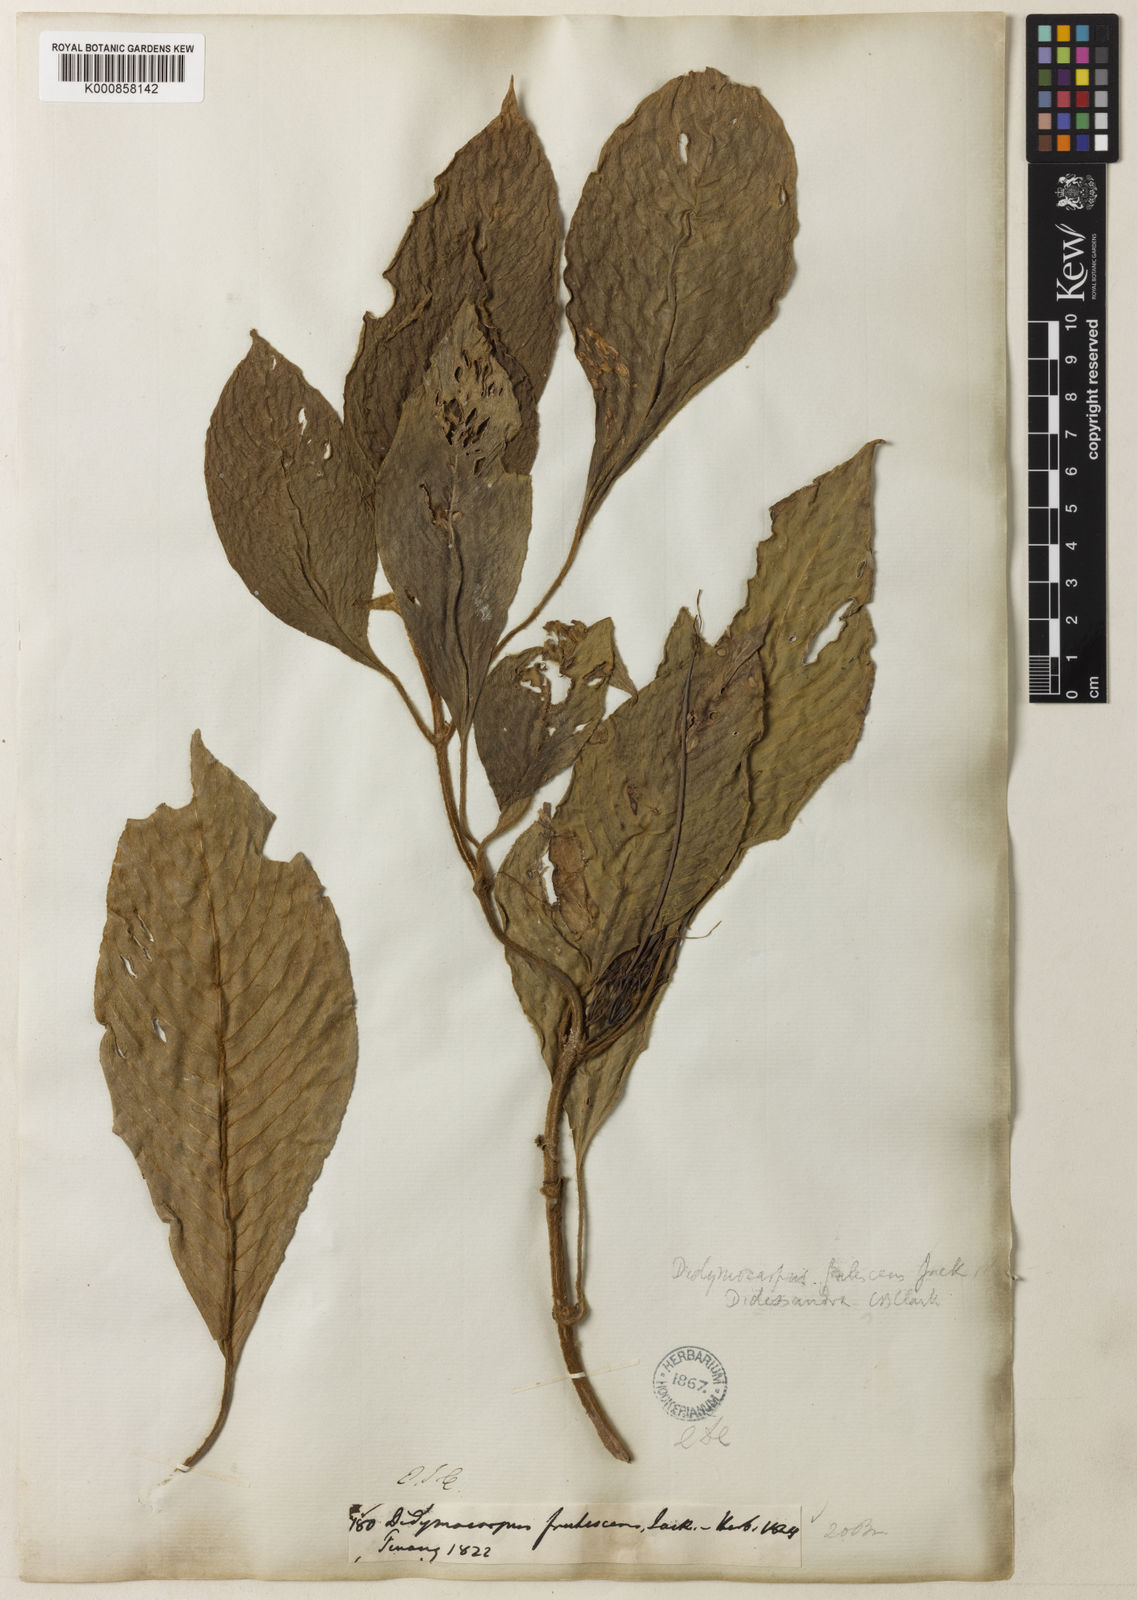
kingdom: Plantae
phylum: Tracheophyta
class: Magnoliopsida
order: Lamiales
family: Gesneriaceae
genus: Didissandra
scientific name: Didissandra frutescens
